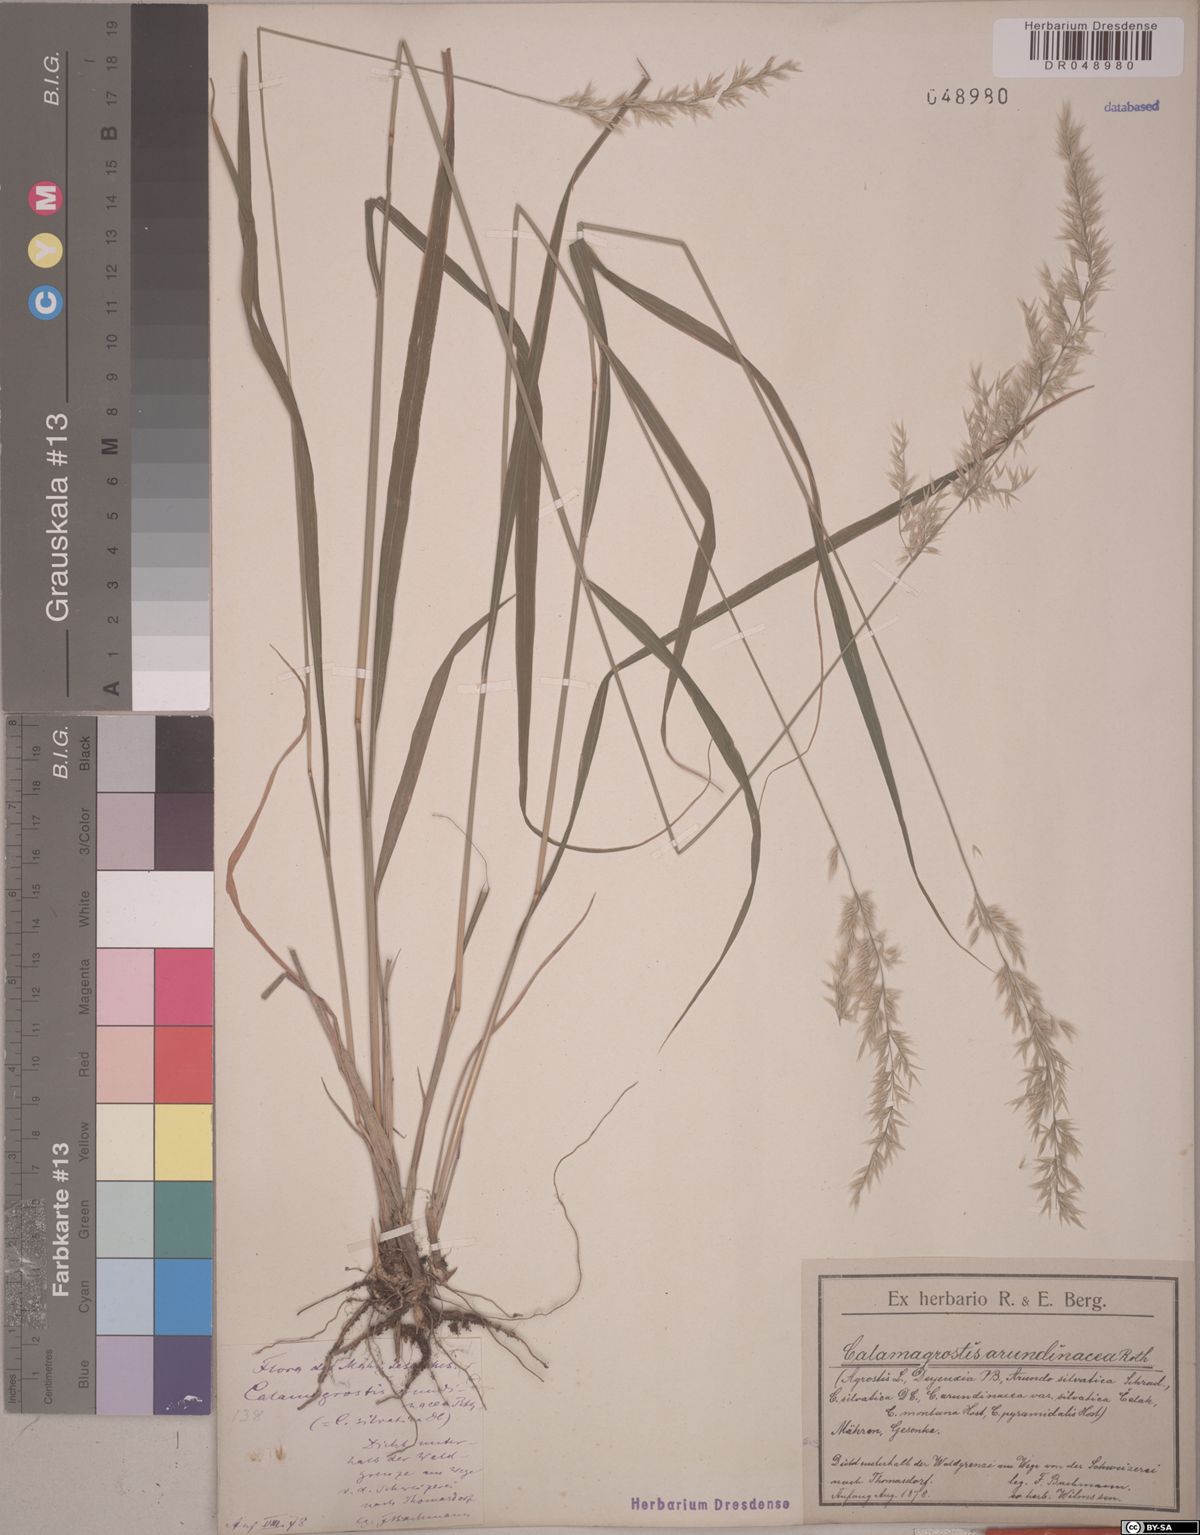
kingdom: Plantae
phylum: Tracheophyta
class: Liliopsida
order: Poales
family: Poaceae
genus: Calamagrostis
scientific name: Calamagrostis arundinacea
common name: Metskastik
